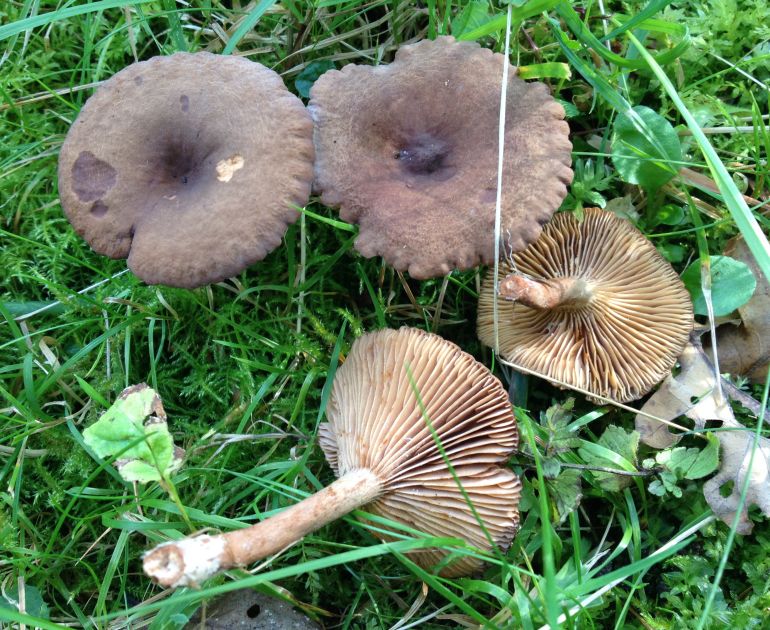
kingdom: Fungi
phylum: Basidiomycota
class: Agaricomycetes
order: Russulales
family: Russulaceae
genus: Lactarius
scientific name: Lactarius serifluus
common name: tæge-mælkehat
